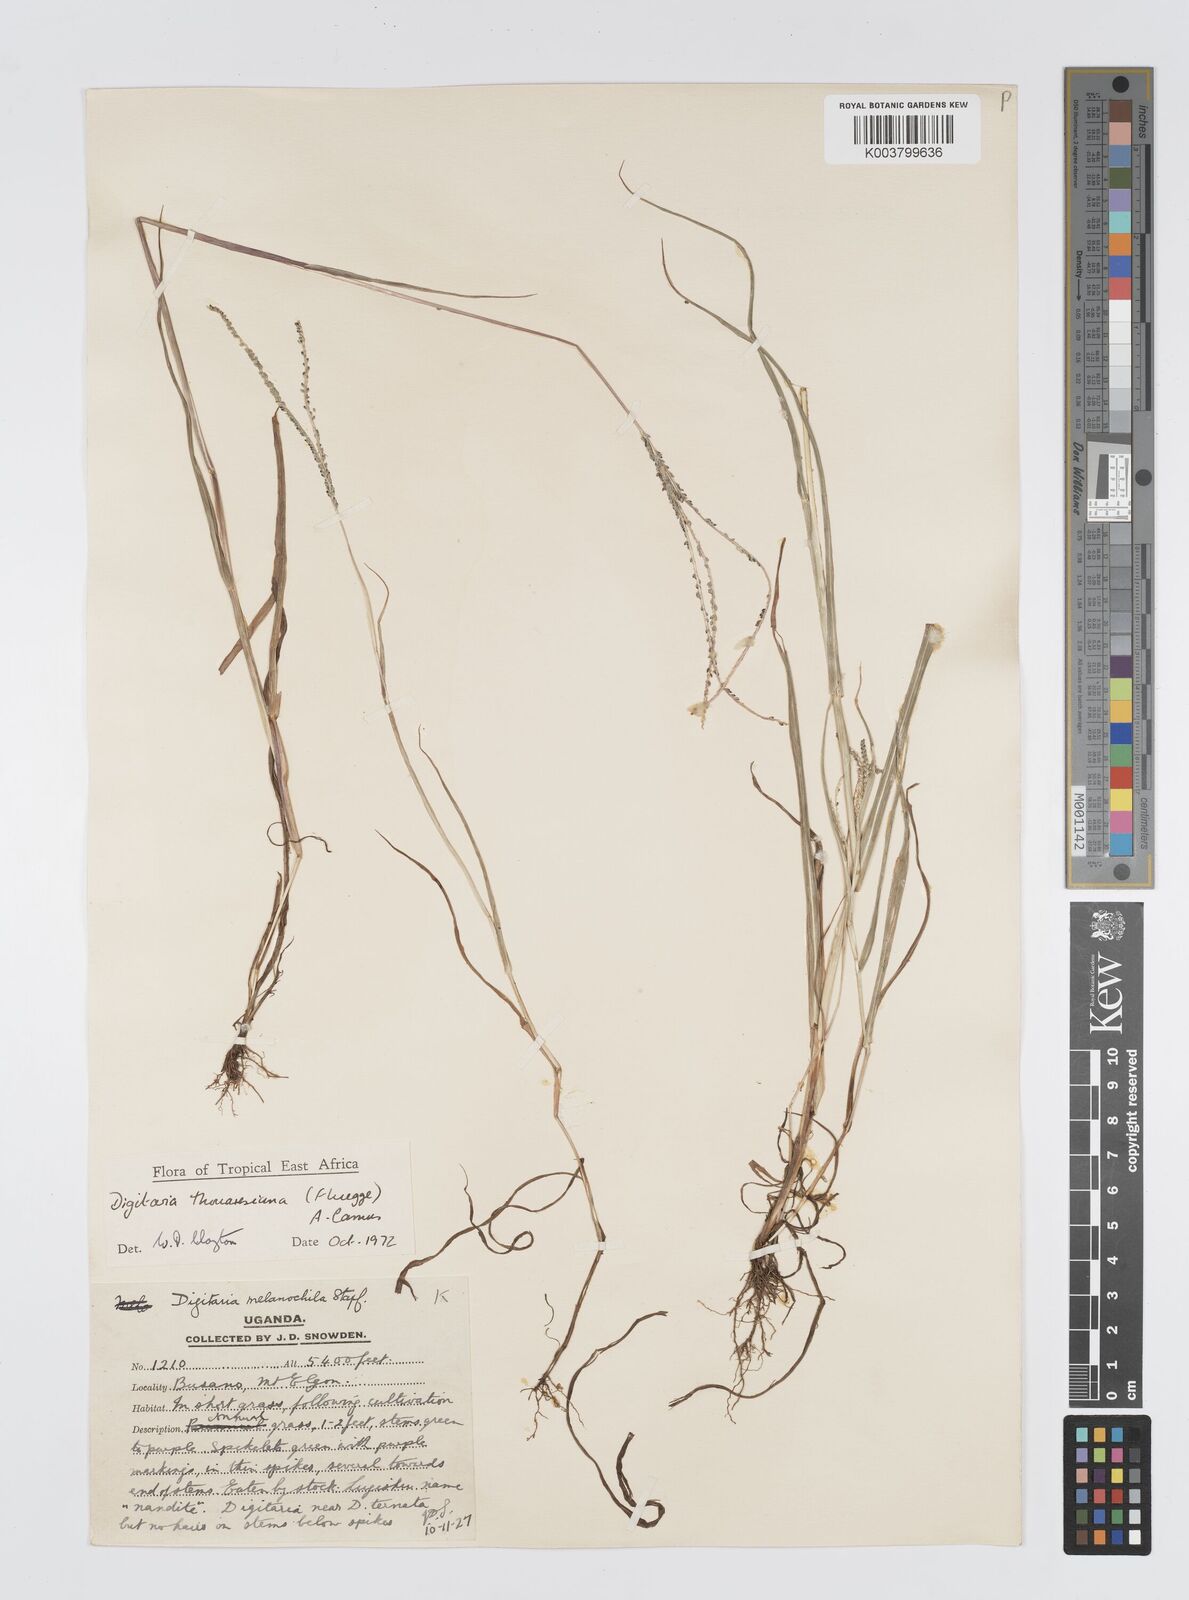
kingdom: Plantae
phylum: Tracheophyta
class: Liliopsida
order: Poales
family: Poaceae
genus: Digitaria
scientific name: Digitaria thouarsiana
